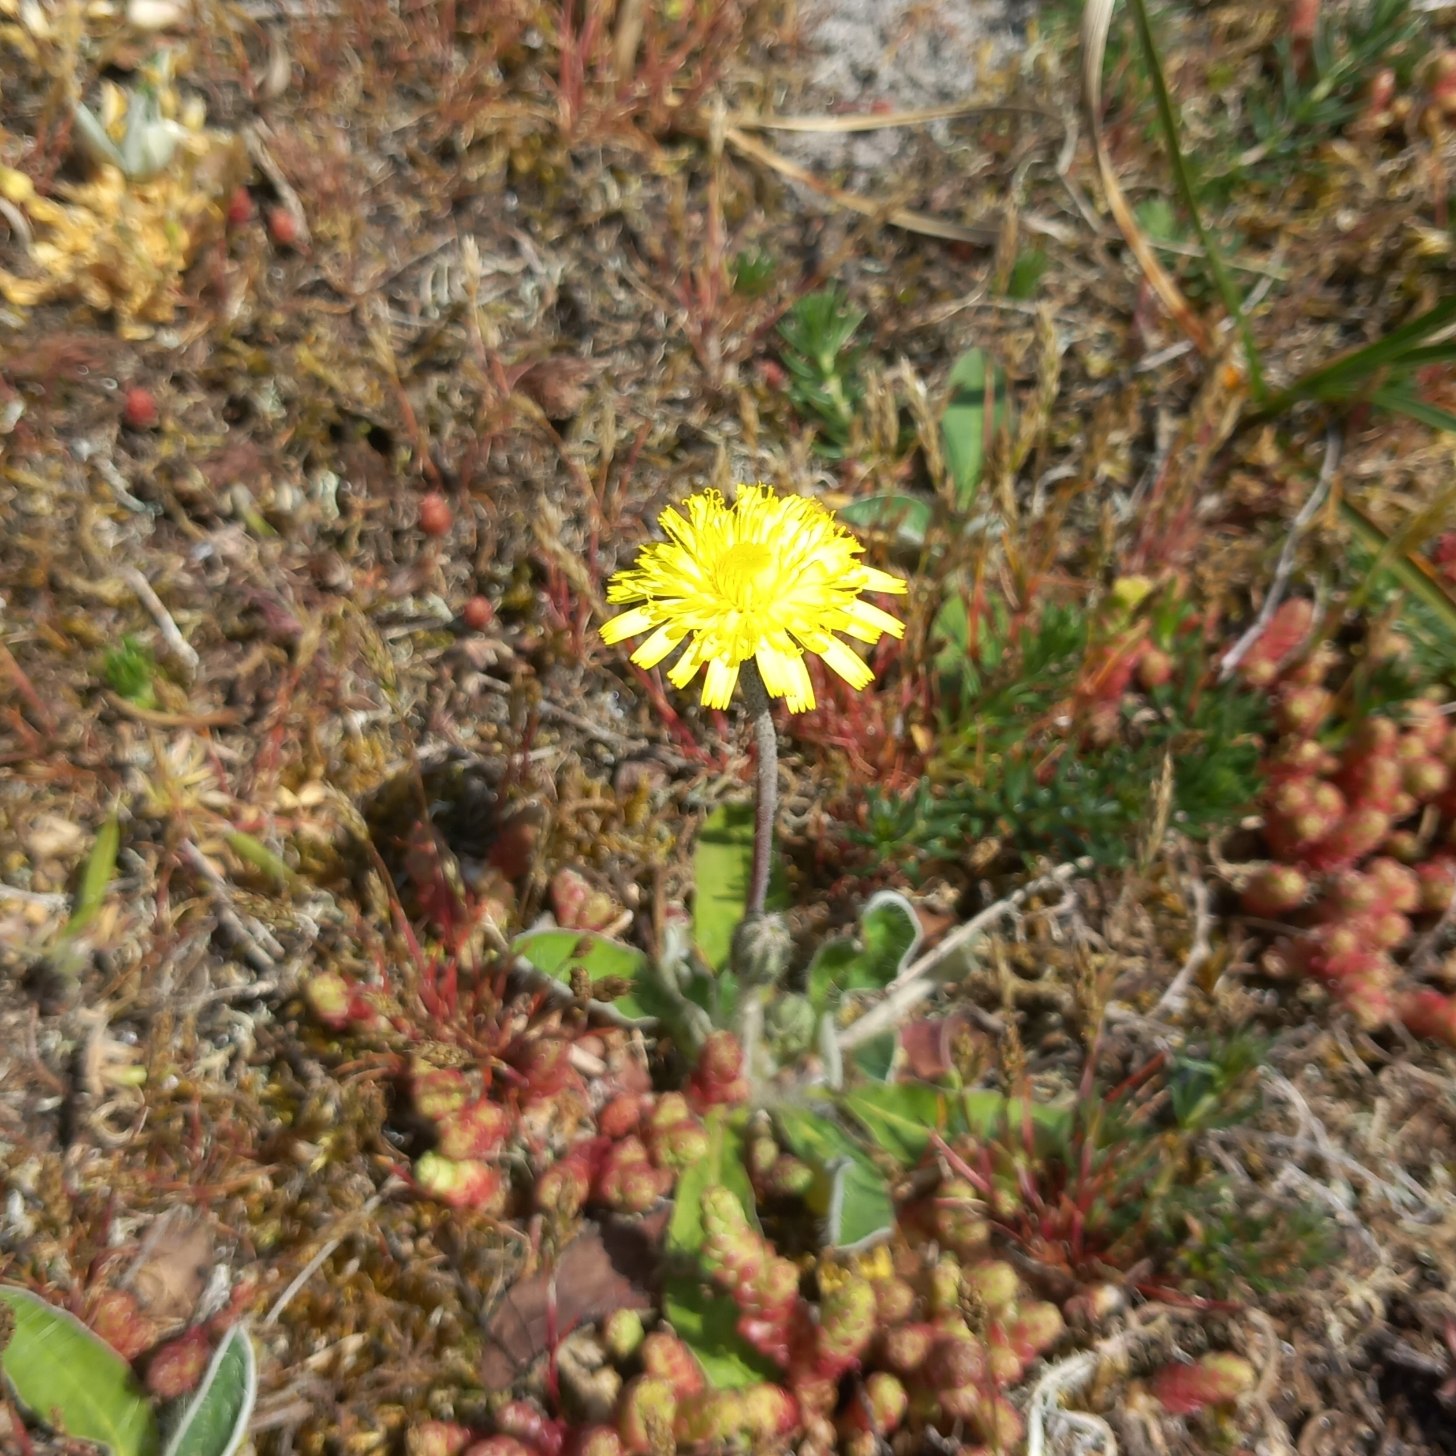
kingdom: Plantae
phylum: Tracheophyta
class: Magnoliopsida
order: Asterales
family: Asteraceae
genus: Pilosella
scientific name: Pilosella officinarum
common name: Håret høgeurt
